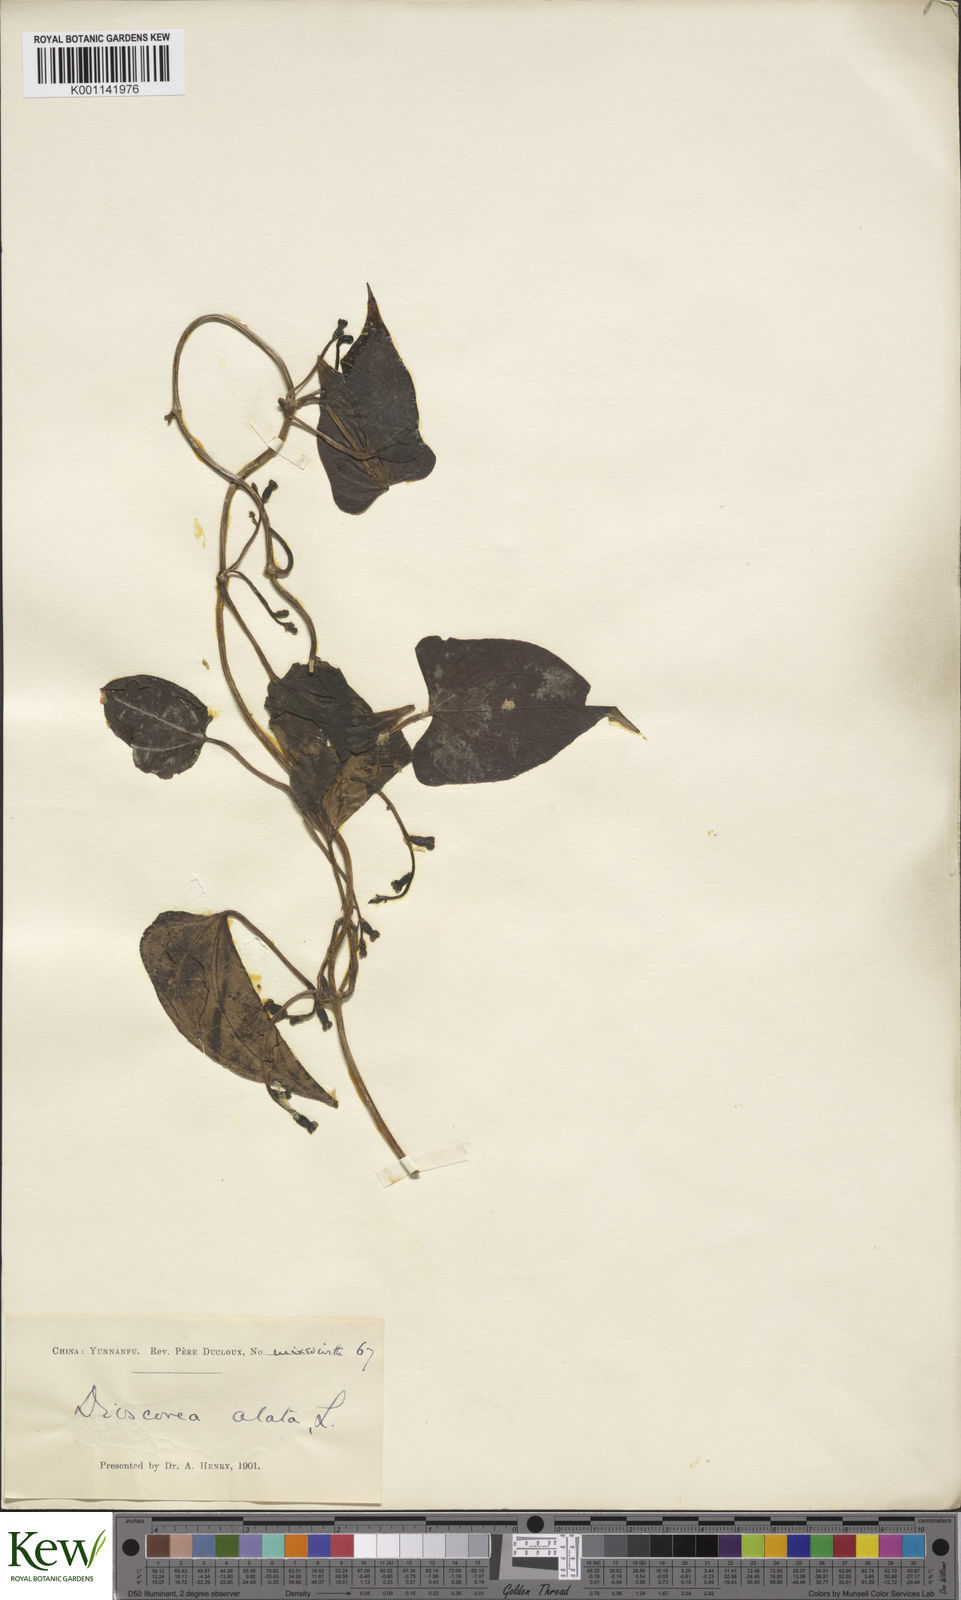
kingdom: Plantae
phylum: Tracheophyta
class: Liliopsida
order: Dioscoreales
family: Dioscoreaceae
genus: Dioscorea
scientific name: Dioscorea alata
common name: Water yam
